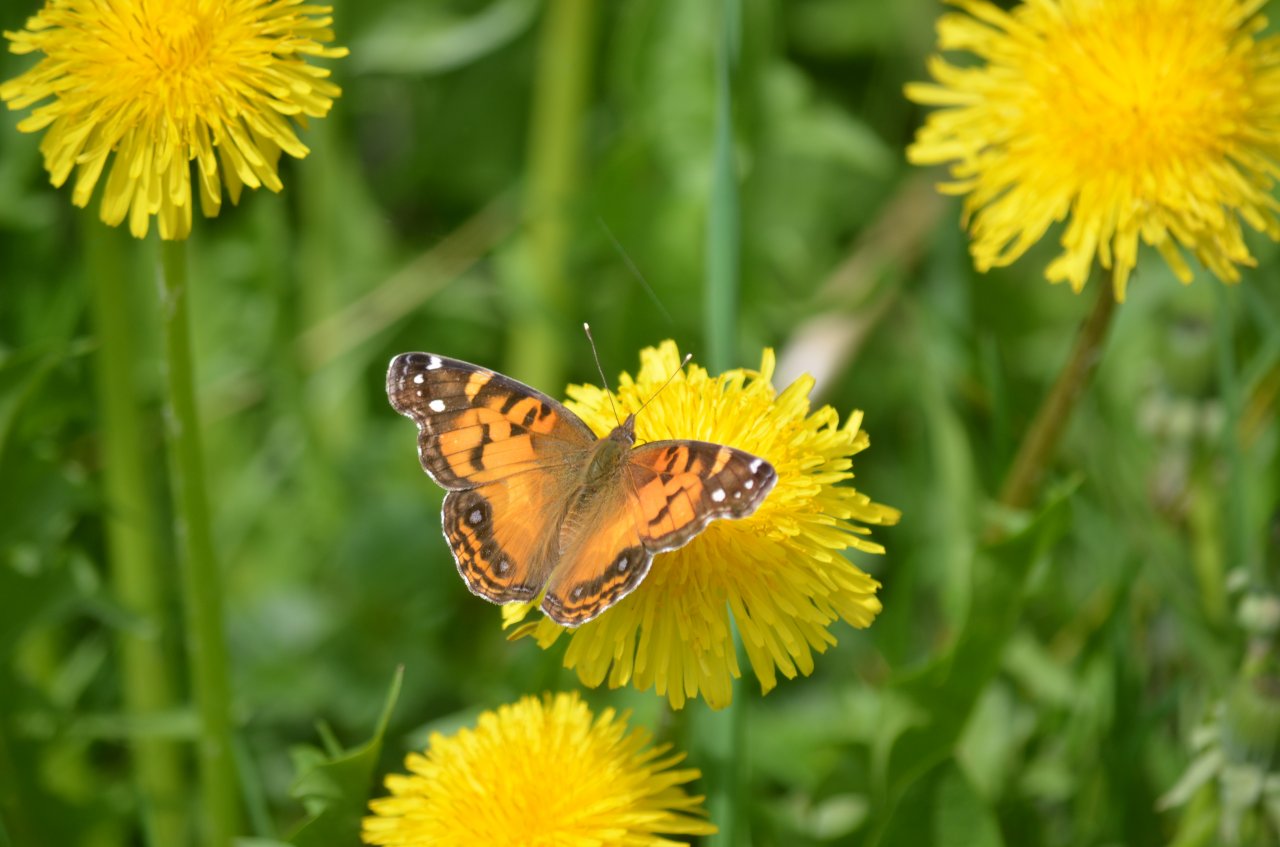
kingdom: Animalia
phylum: Arthropoda
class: Insecta
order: Lepidoptera
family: Nymphalidae
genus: Vanessa
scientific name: Vanessa virginiensis
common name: American Lady
